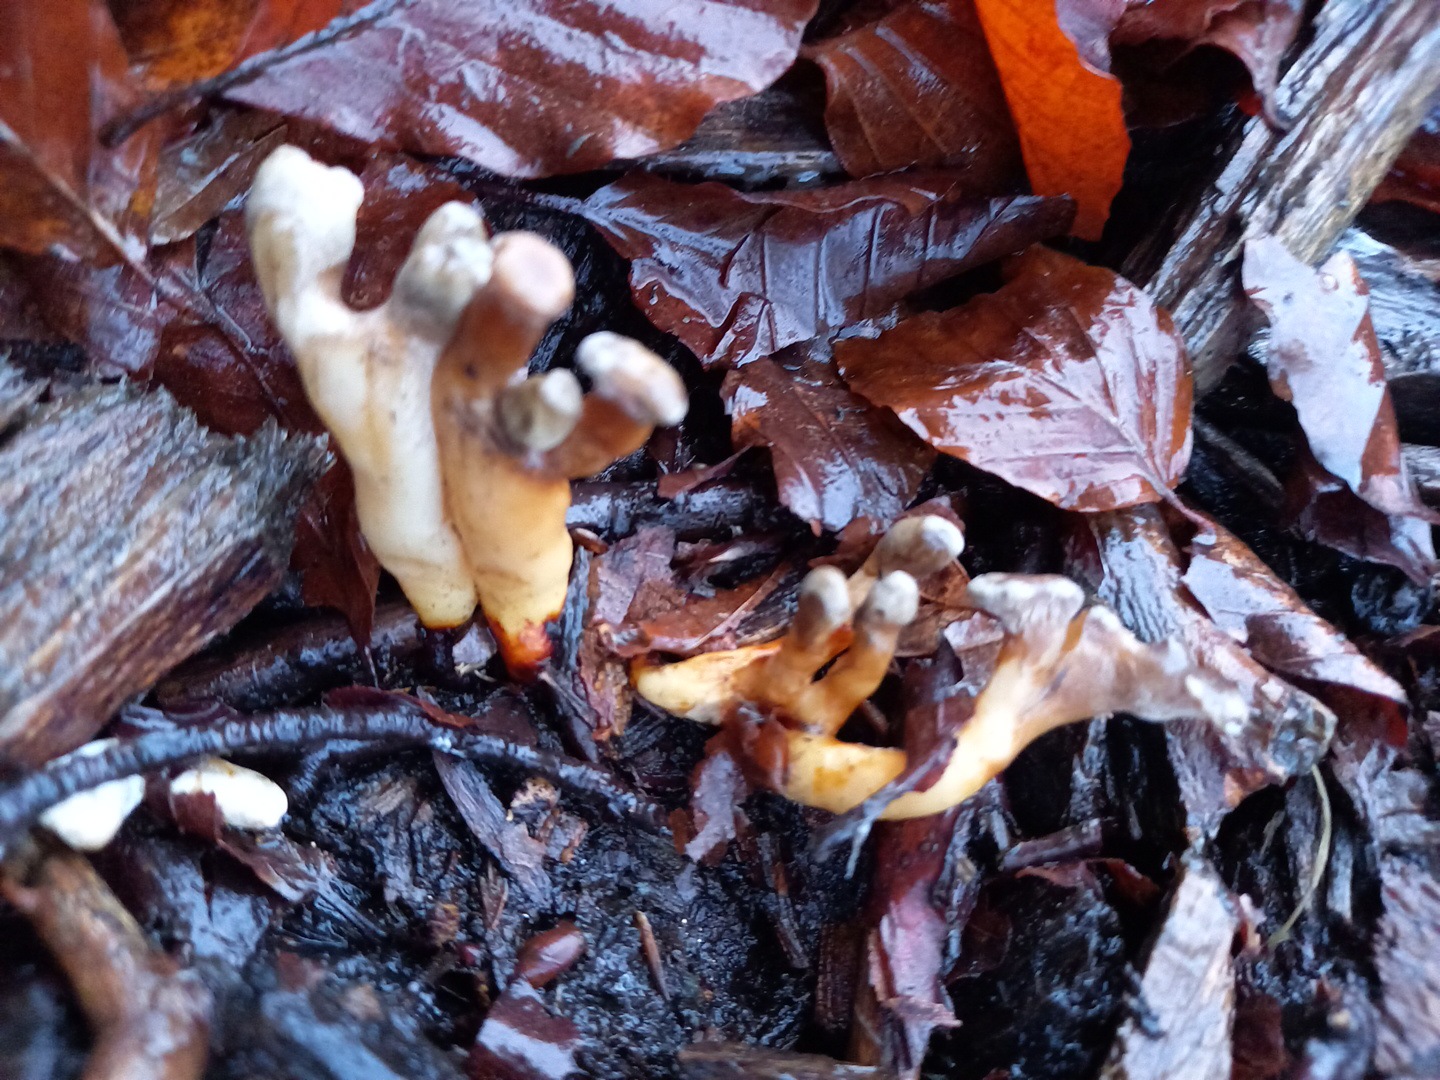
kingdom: Fungi
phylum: Basidiomycota
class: Agaricomycetes
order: Polyporales
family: Polyporaceae
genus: Lentinus
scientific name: Lentinus brumalis
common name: vinter-stilkporesvamp
